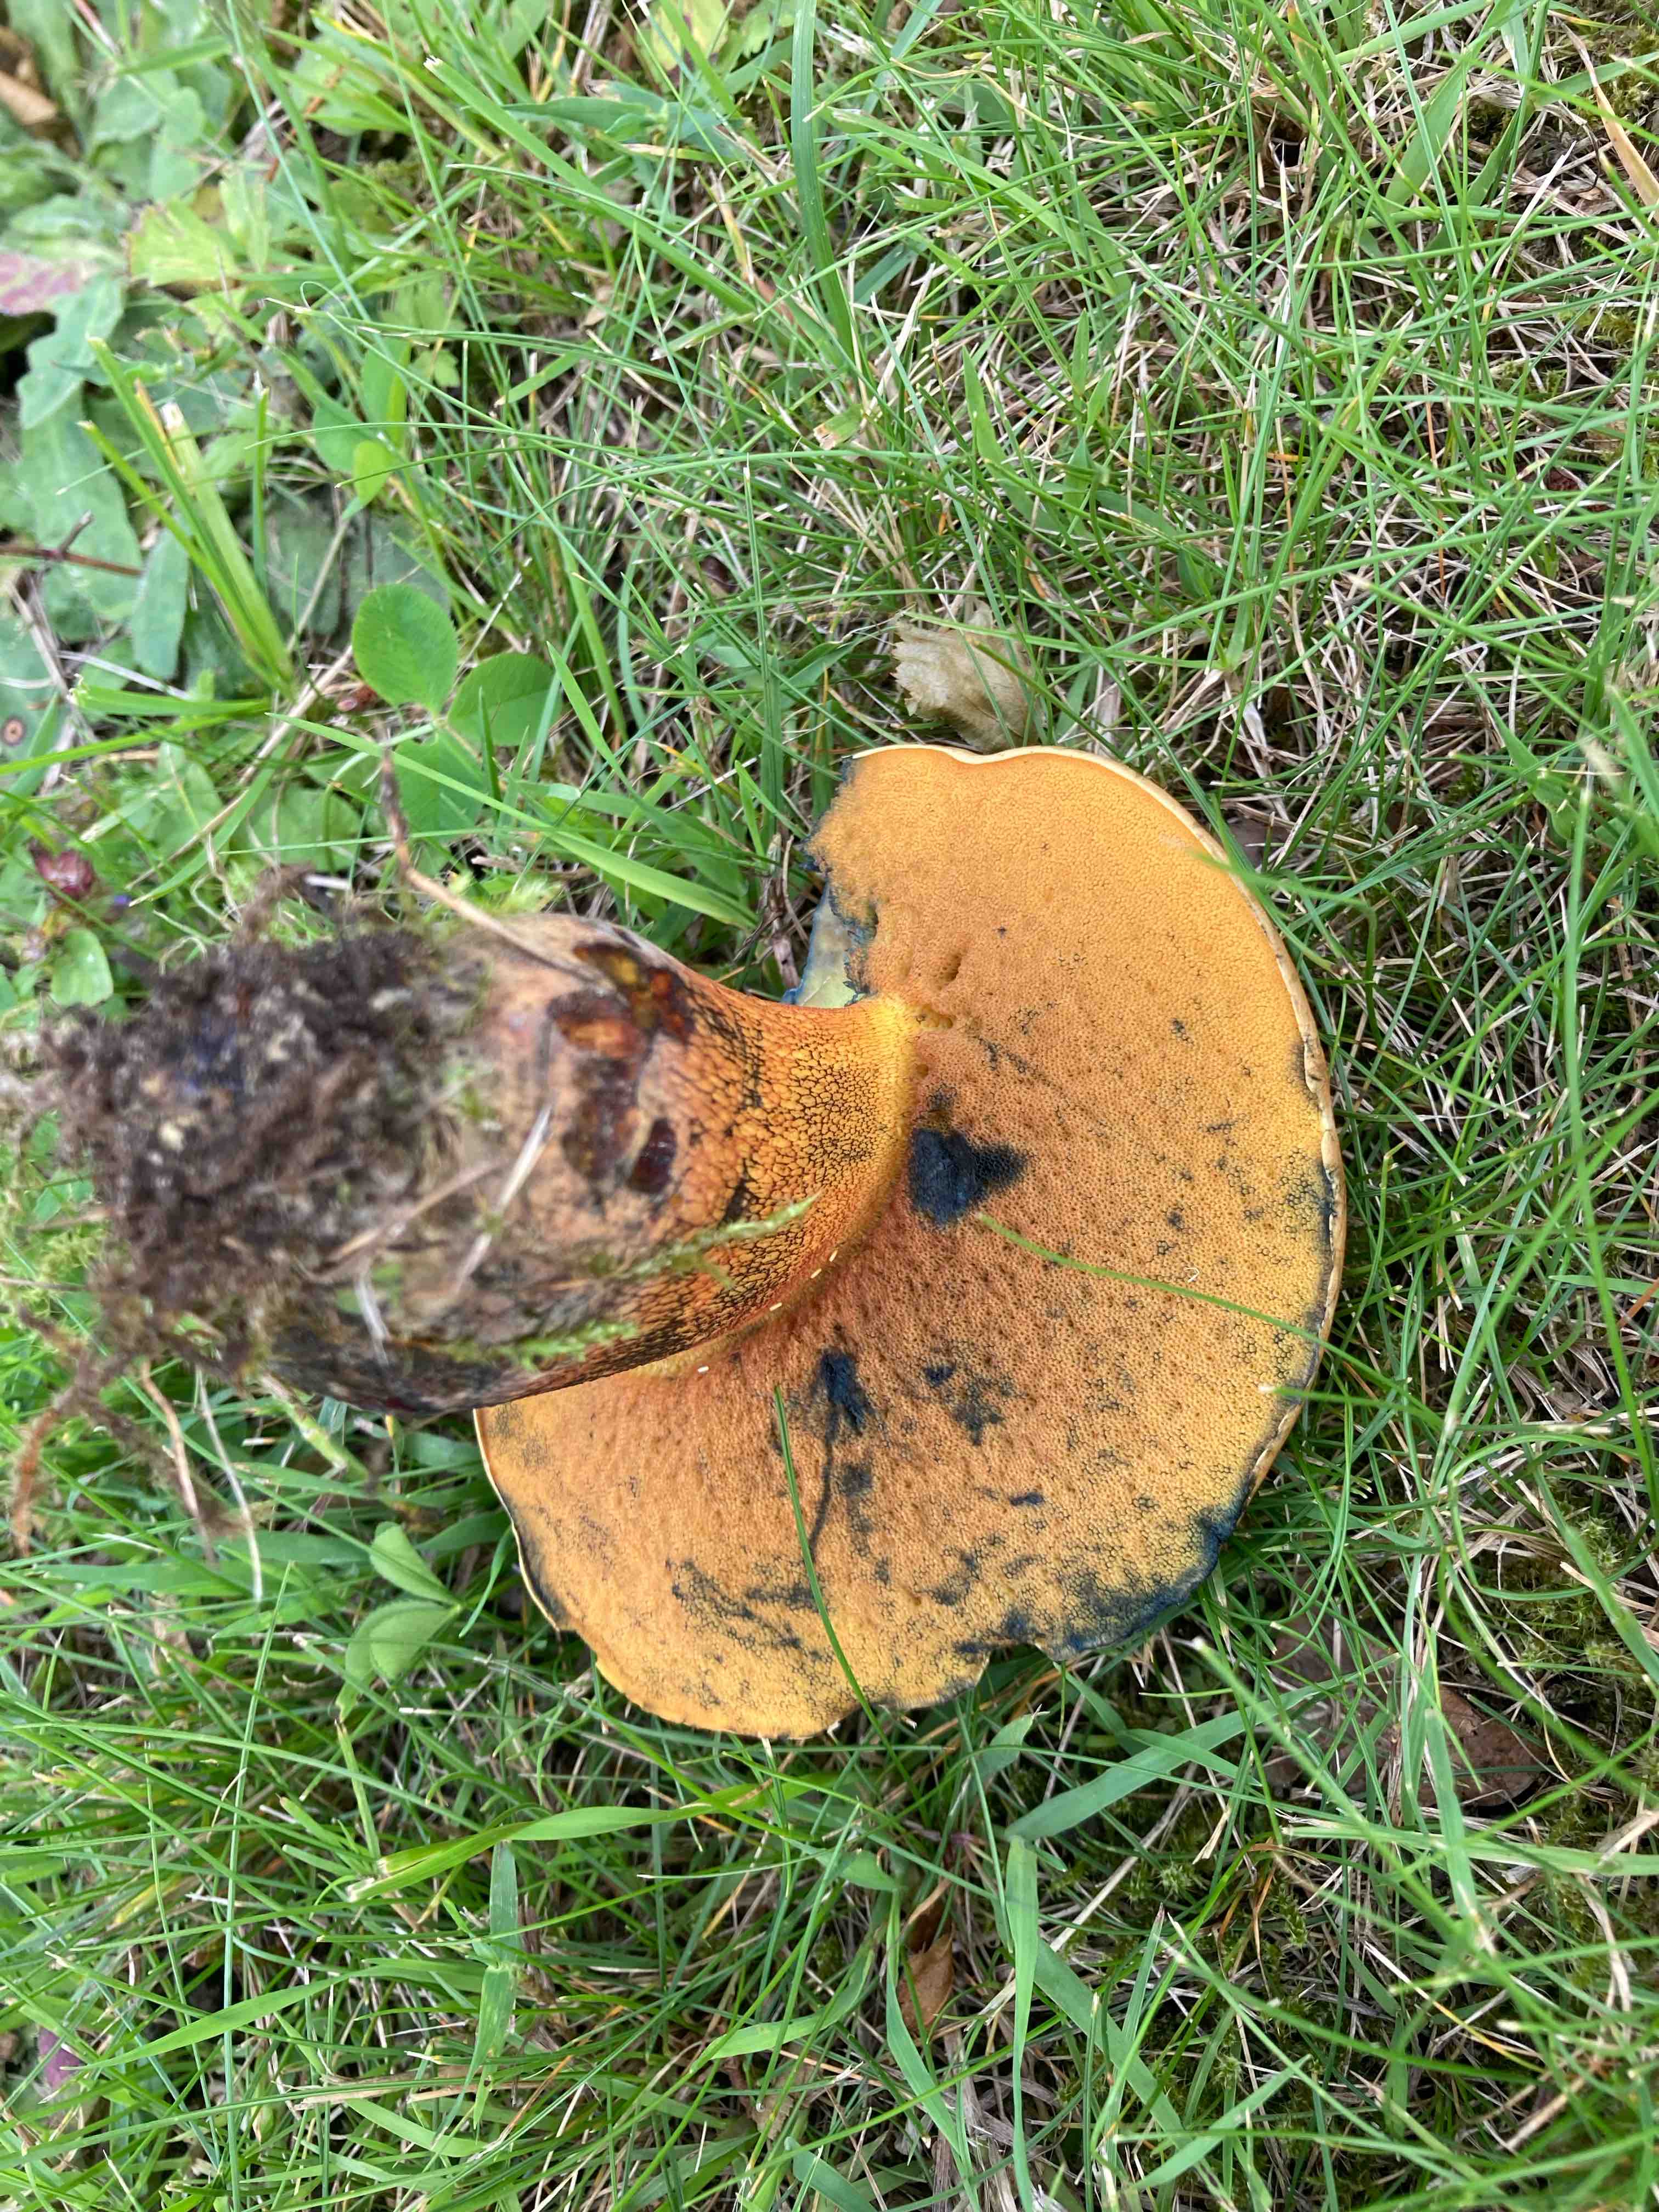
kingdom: Fungi
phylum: Basidiomycota
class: Agaricomycetes
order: Boletales
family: Boletaceae
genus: Suillellus
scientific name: Suillellus luridus
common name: netstokket indigorørhat
